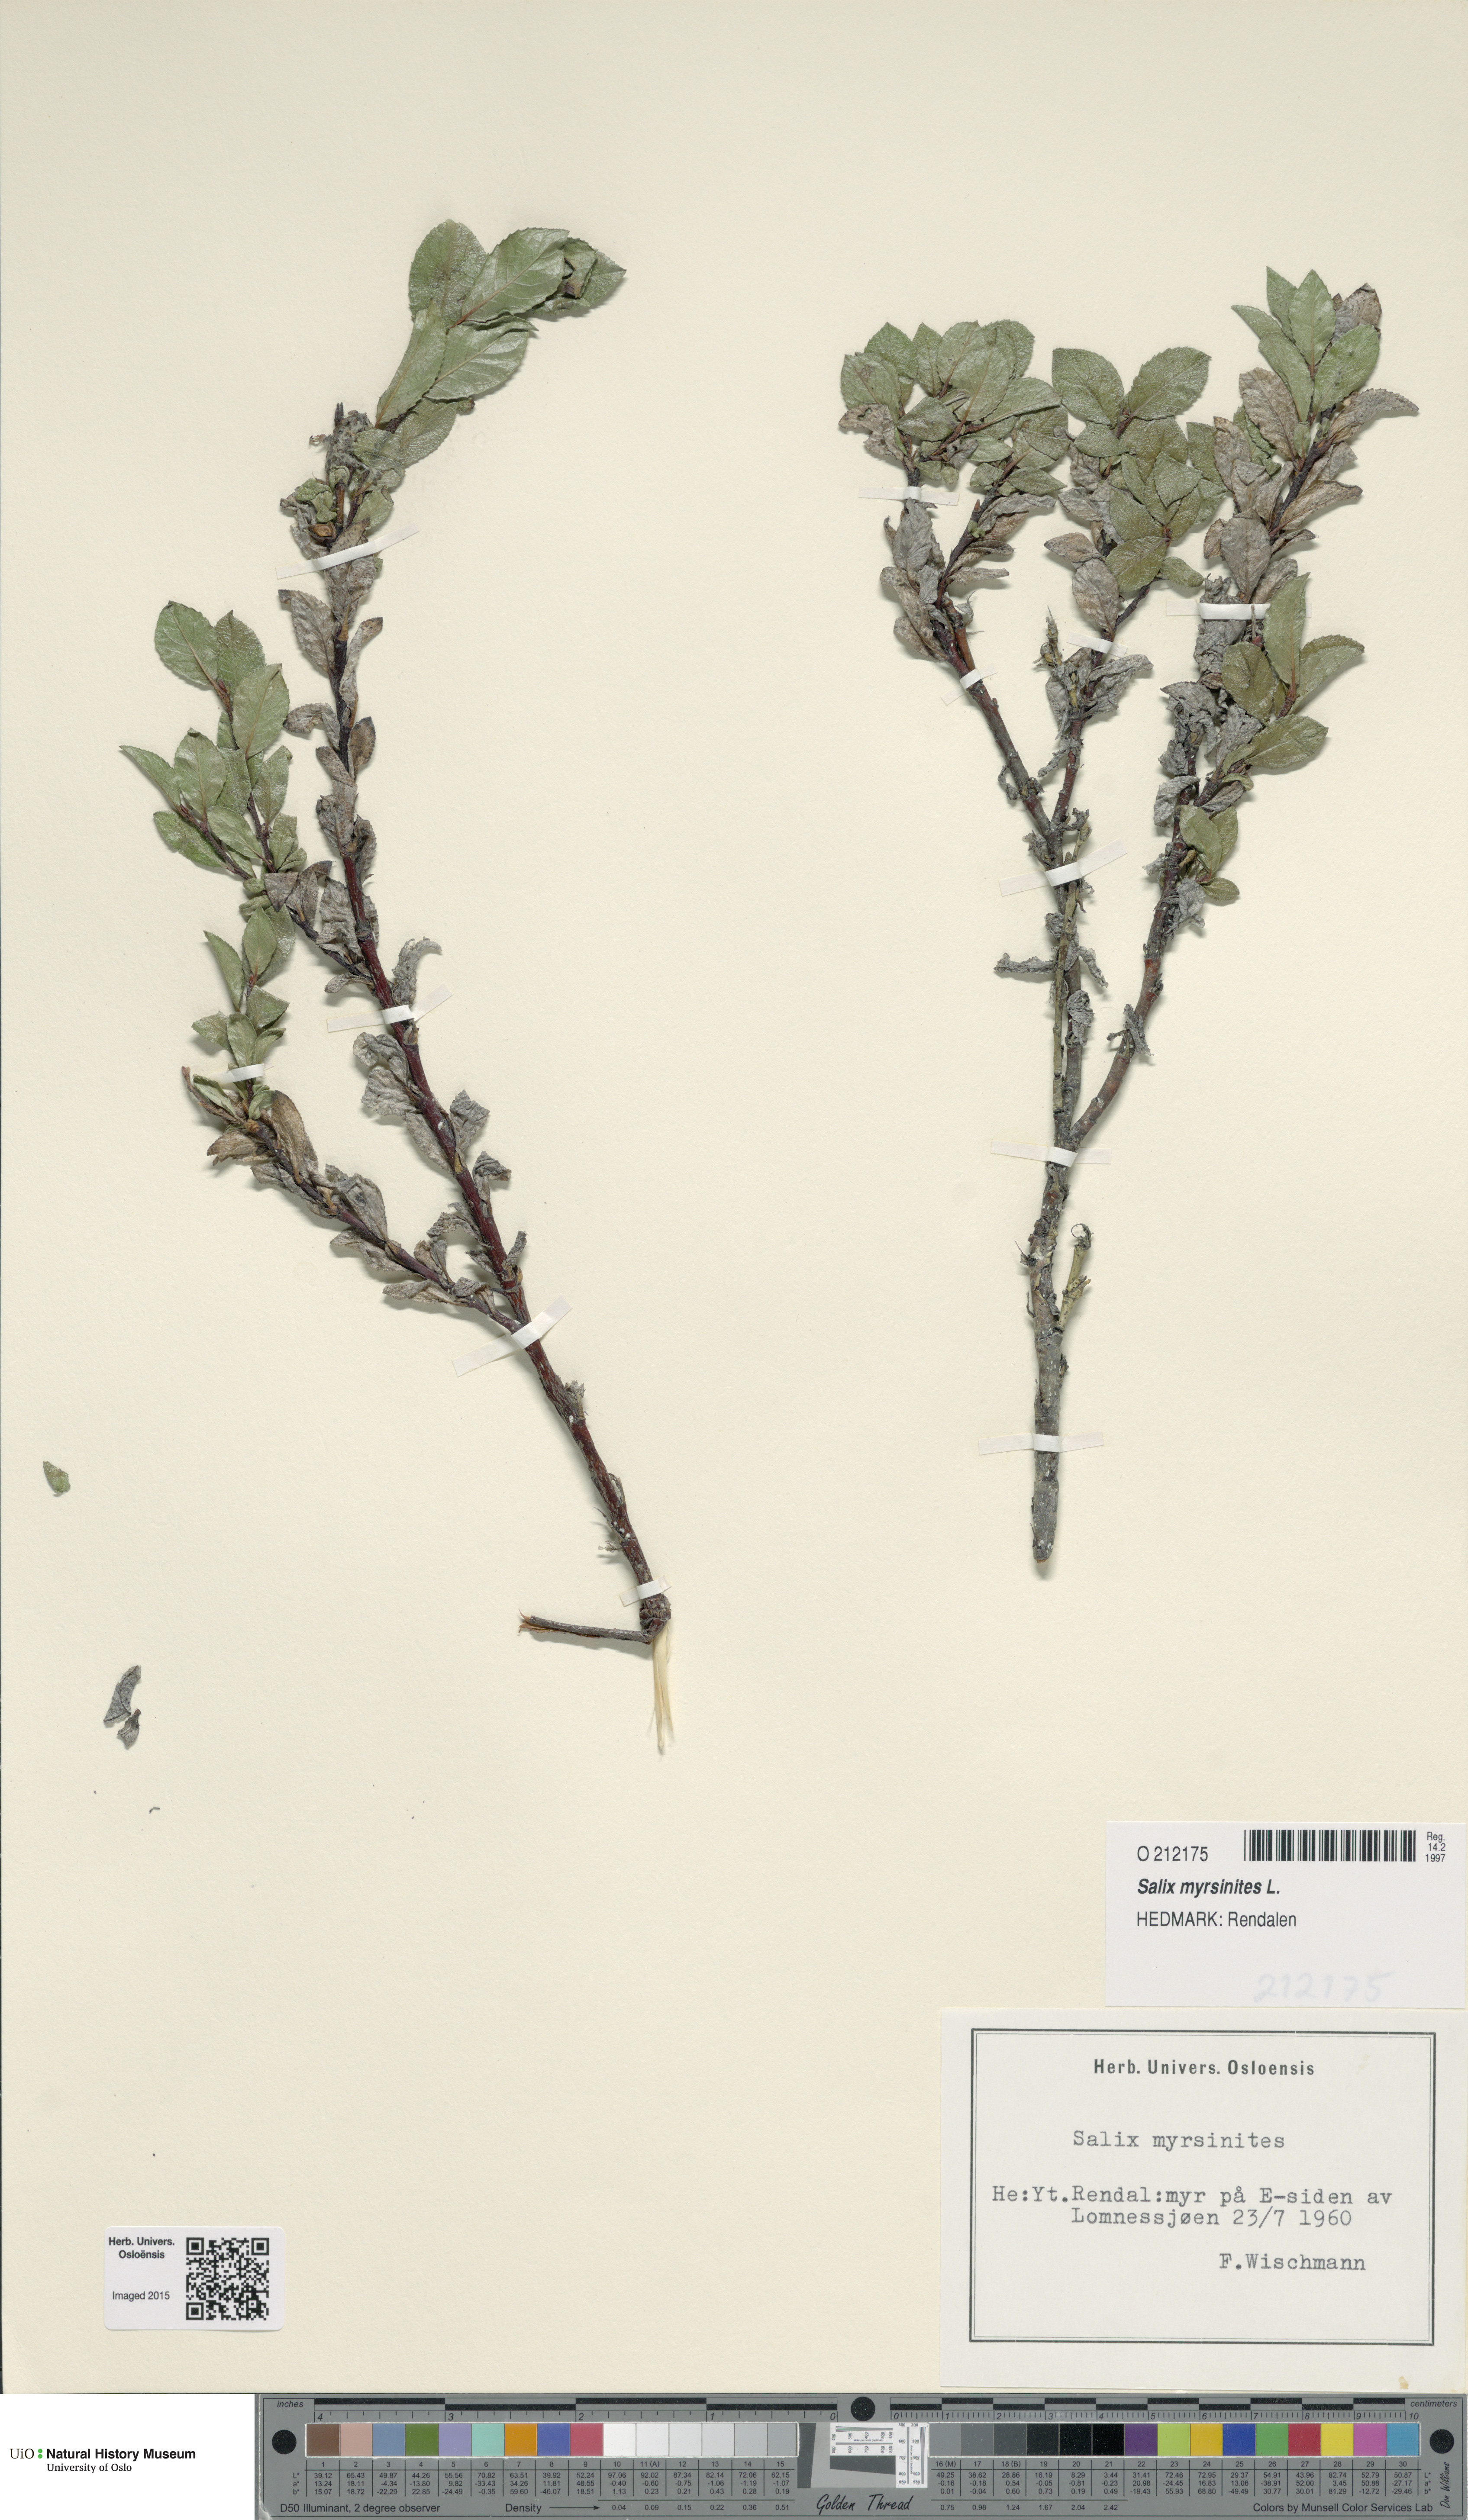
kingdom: Plantae
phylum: Tracheophyta
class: Magnoliopsida
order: Malpighiales
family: Salicaceae
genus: Salix
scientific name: Salix myrsinites
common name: Myrtle willow
